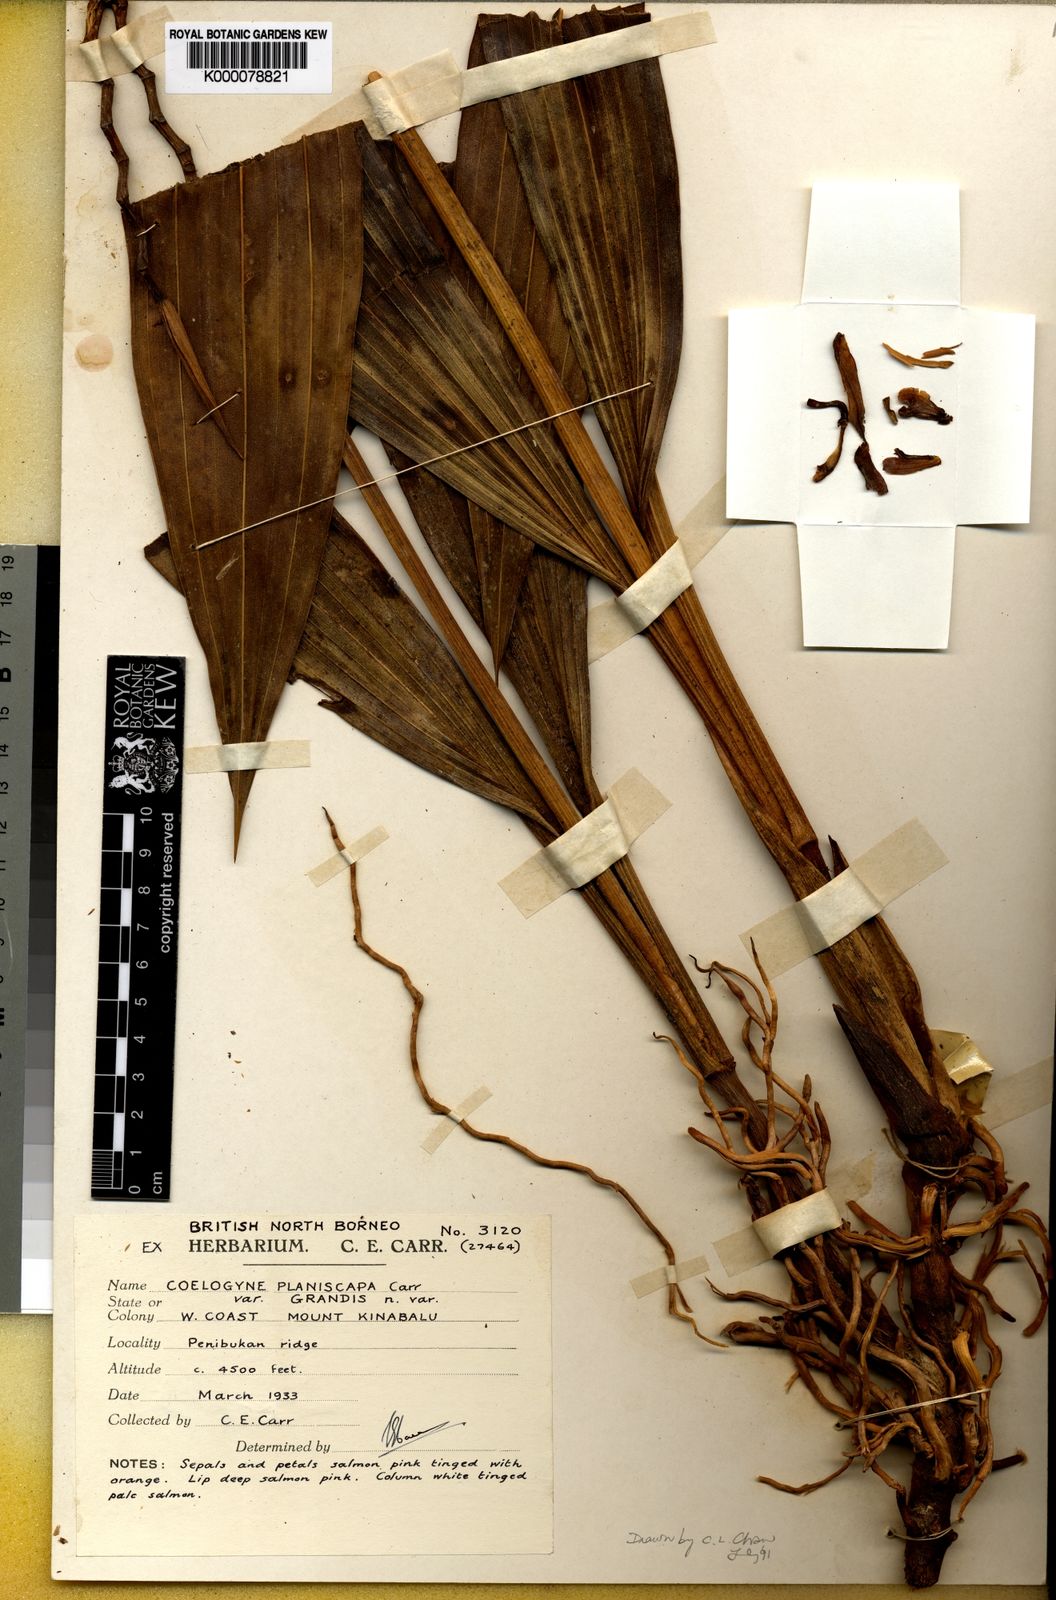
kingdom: Plantae
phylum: Tracheophyta
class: Liliopsida
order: Asparagales
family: Orchidaceae
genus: Coelogyne
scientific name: Coelogyne planiscapa
